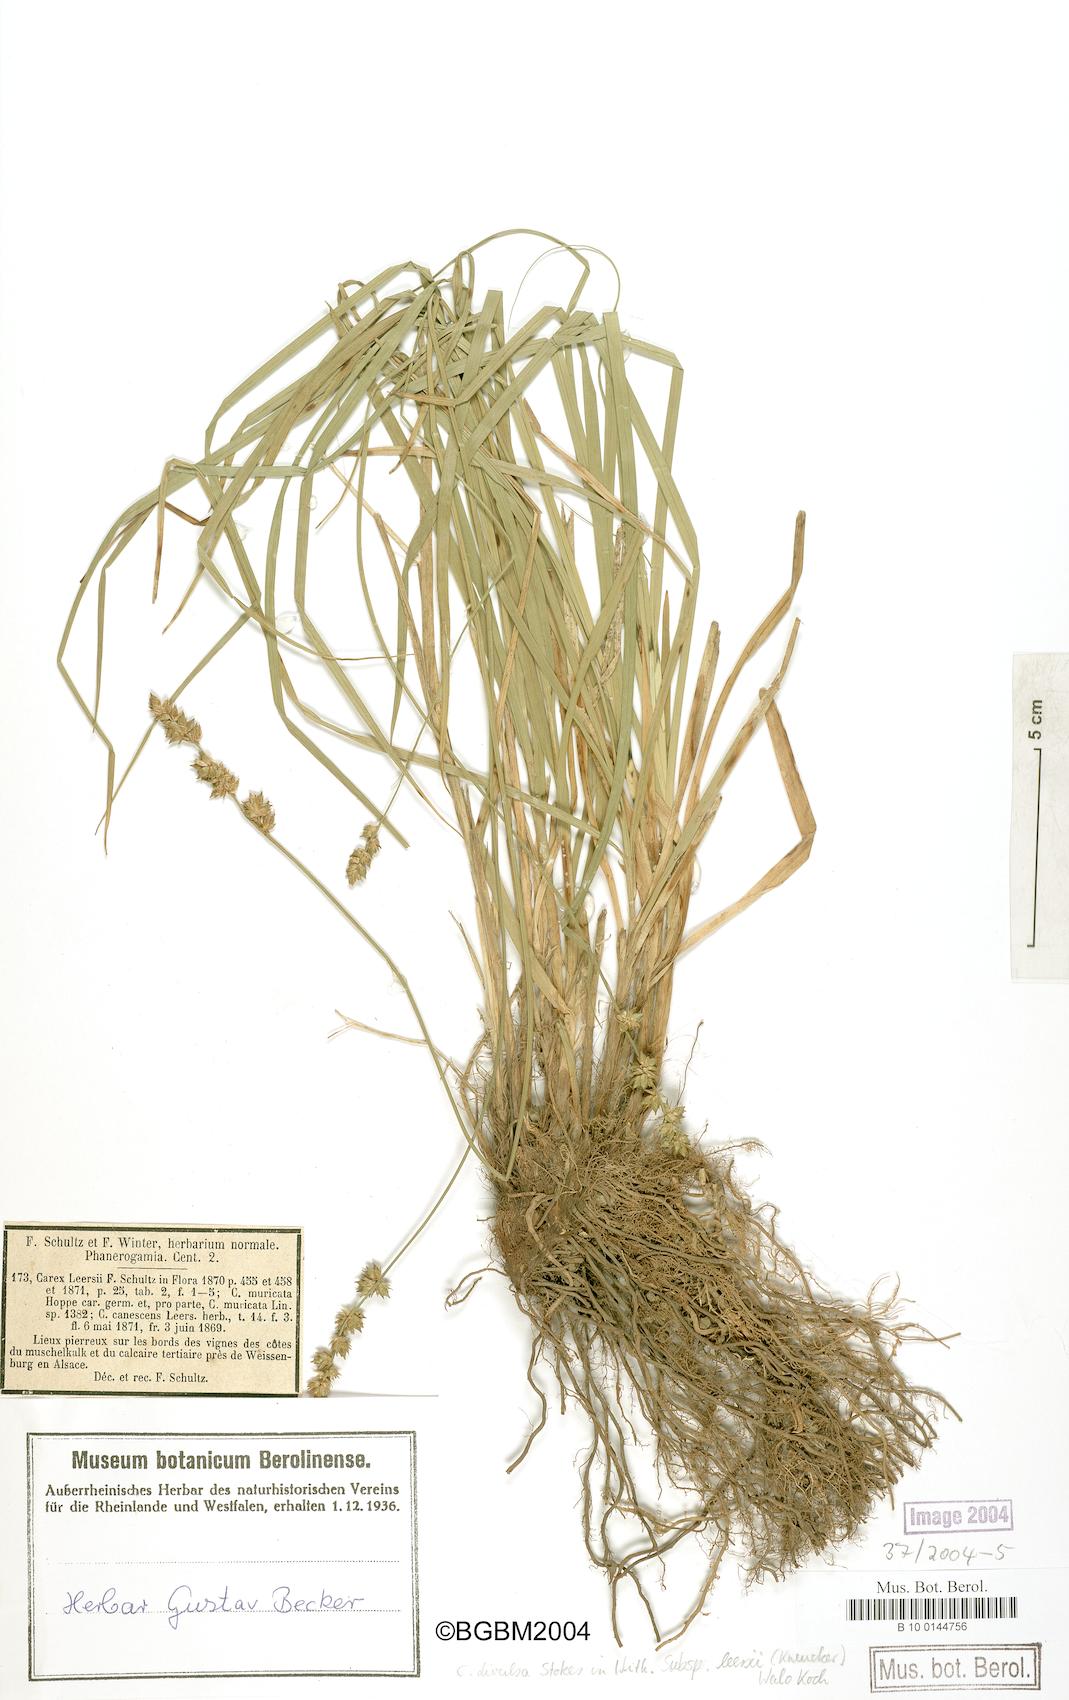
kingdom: Plantae
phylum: Tracheophyta
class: Liliopsida
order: Poales
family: Cyperaceae
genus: Carex
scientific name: Carex leersii
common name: Leers' sedge
